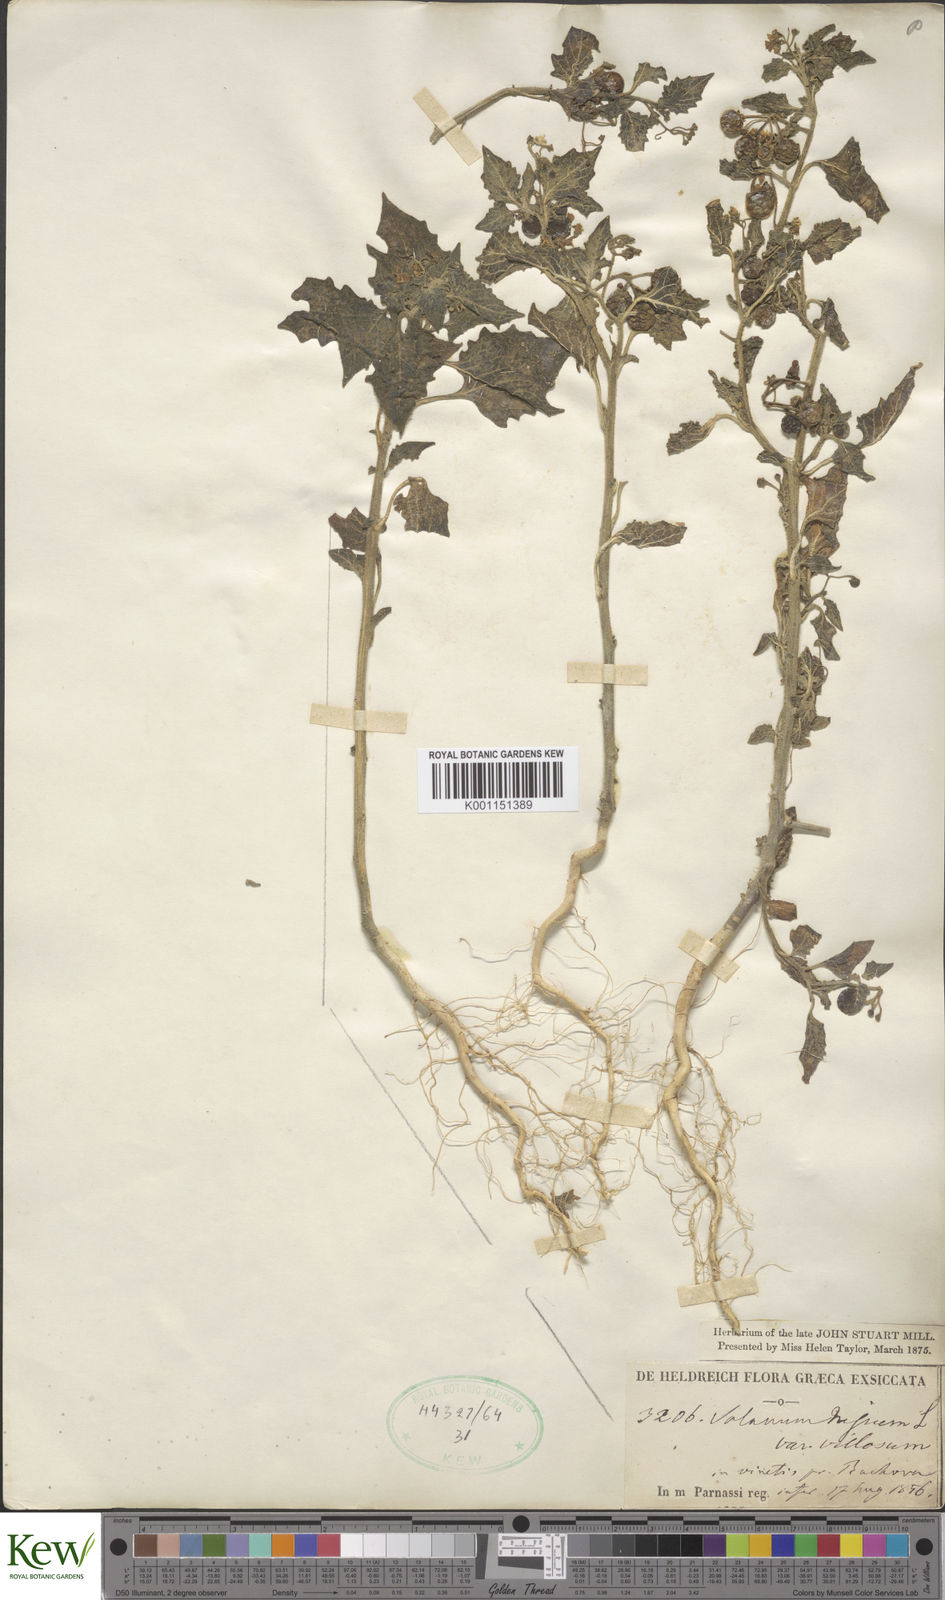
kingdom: Plantae
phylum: Tracheophyta
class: Magnoliopsida
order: Solanales
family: Solanaceae
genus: Solanum
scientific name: Solanum villosum
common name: Red nightshade
